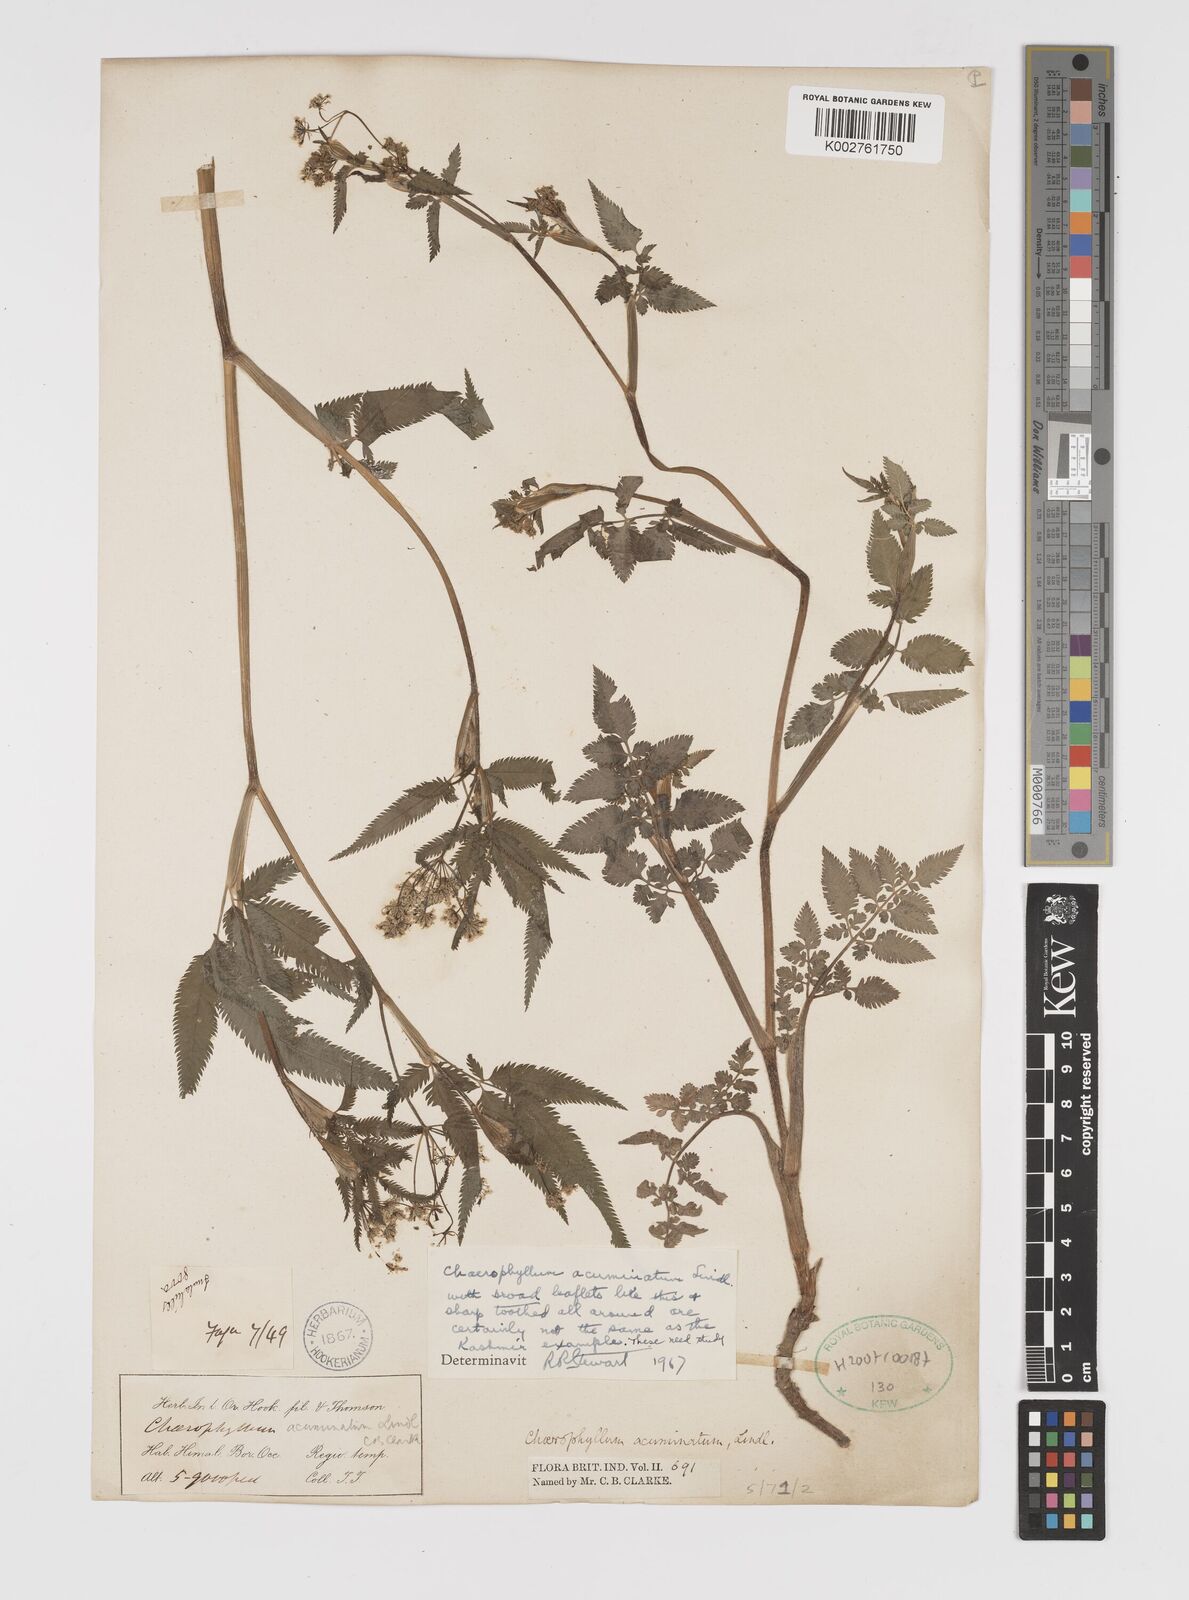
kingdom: Plantae
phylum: Tracheophyta
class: Magnoliopsida
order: Apiales
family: Apiaceae
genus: Chaerophyllum
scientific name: Chaerophyllum reflexum
